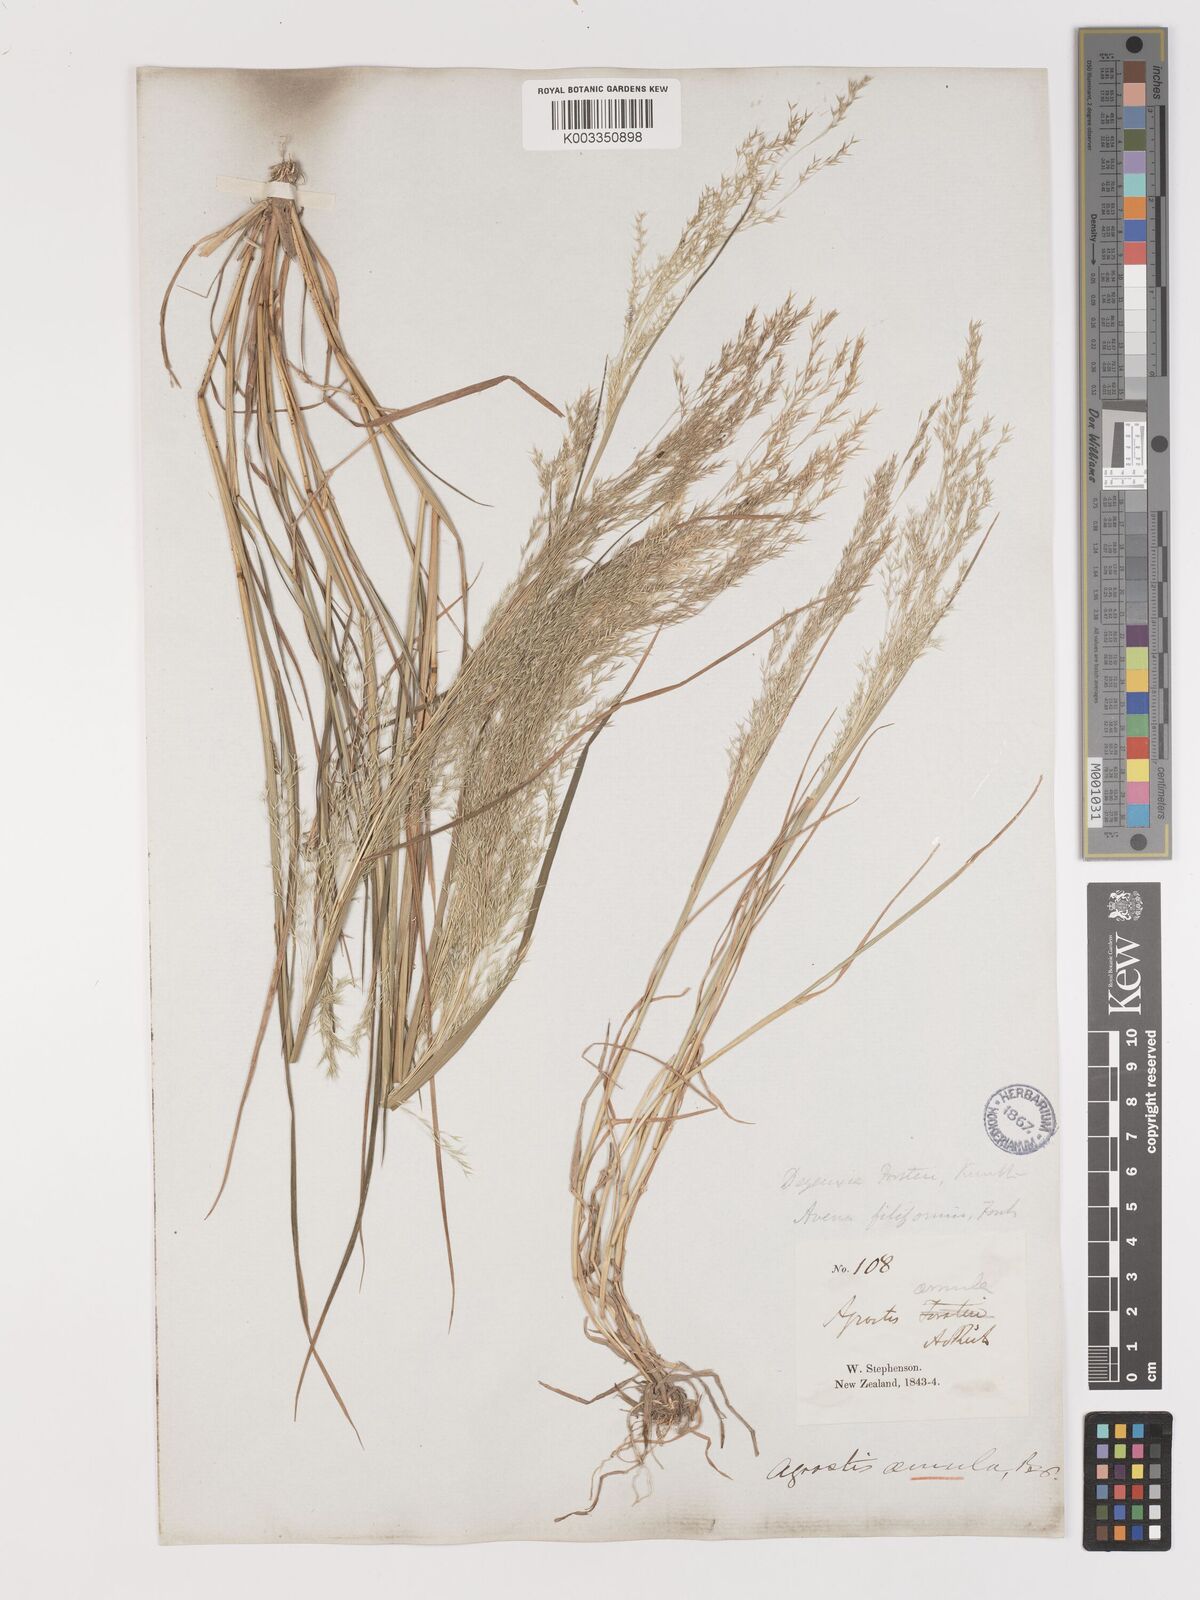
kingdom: Plantae
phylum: Tracheophyta
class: Liliopsida
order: Poales
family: Poaceae
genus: Lachnagrostis
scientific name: Lachnagrostis filiformis
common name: Bentgrass
